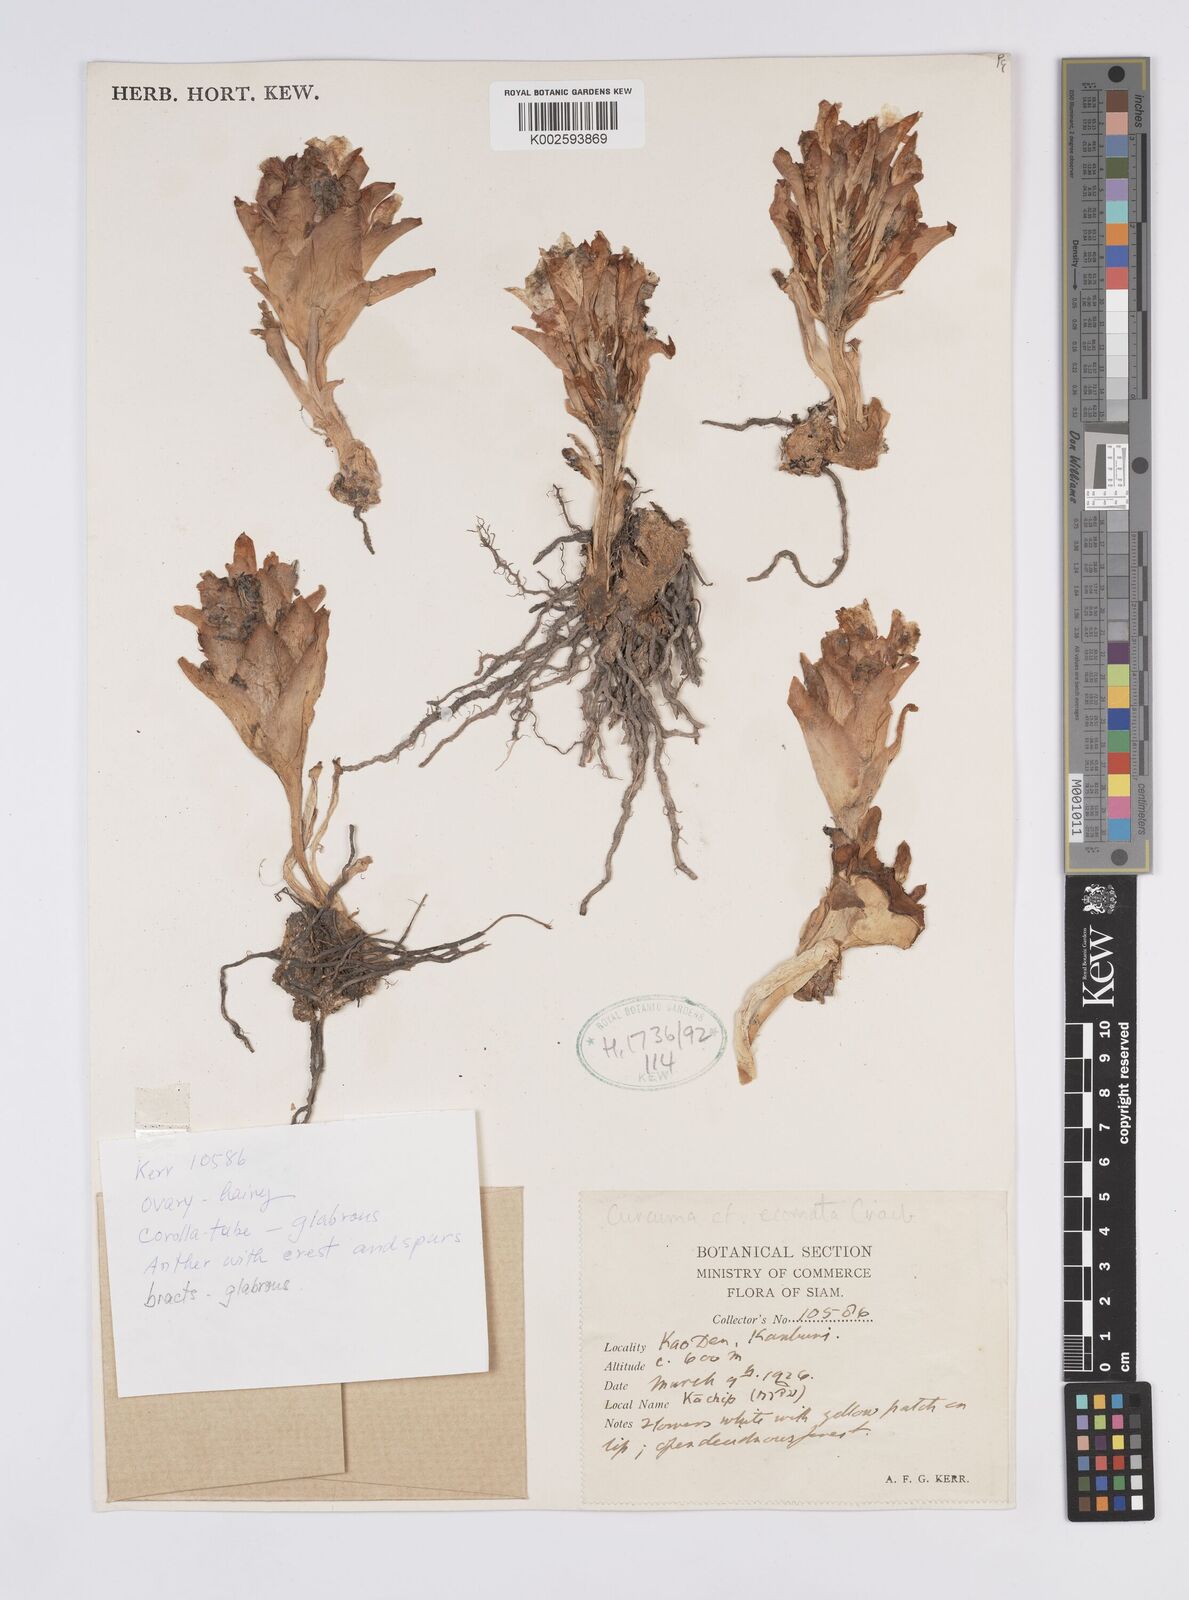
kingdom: Plantae
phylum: Tracheophyta
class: Liliopsida
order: Zingiberales
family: Zingiberaceae
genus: Curcuma
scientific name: Curcuma colorata
